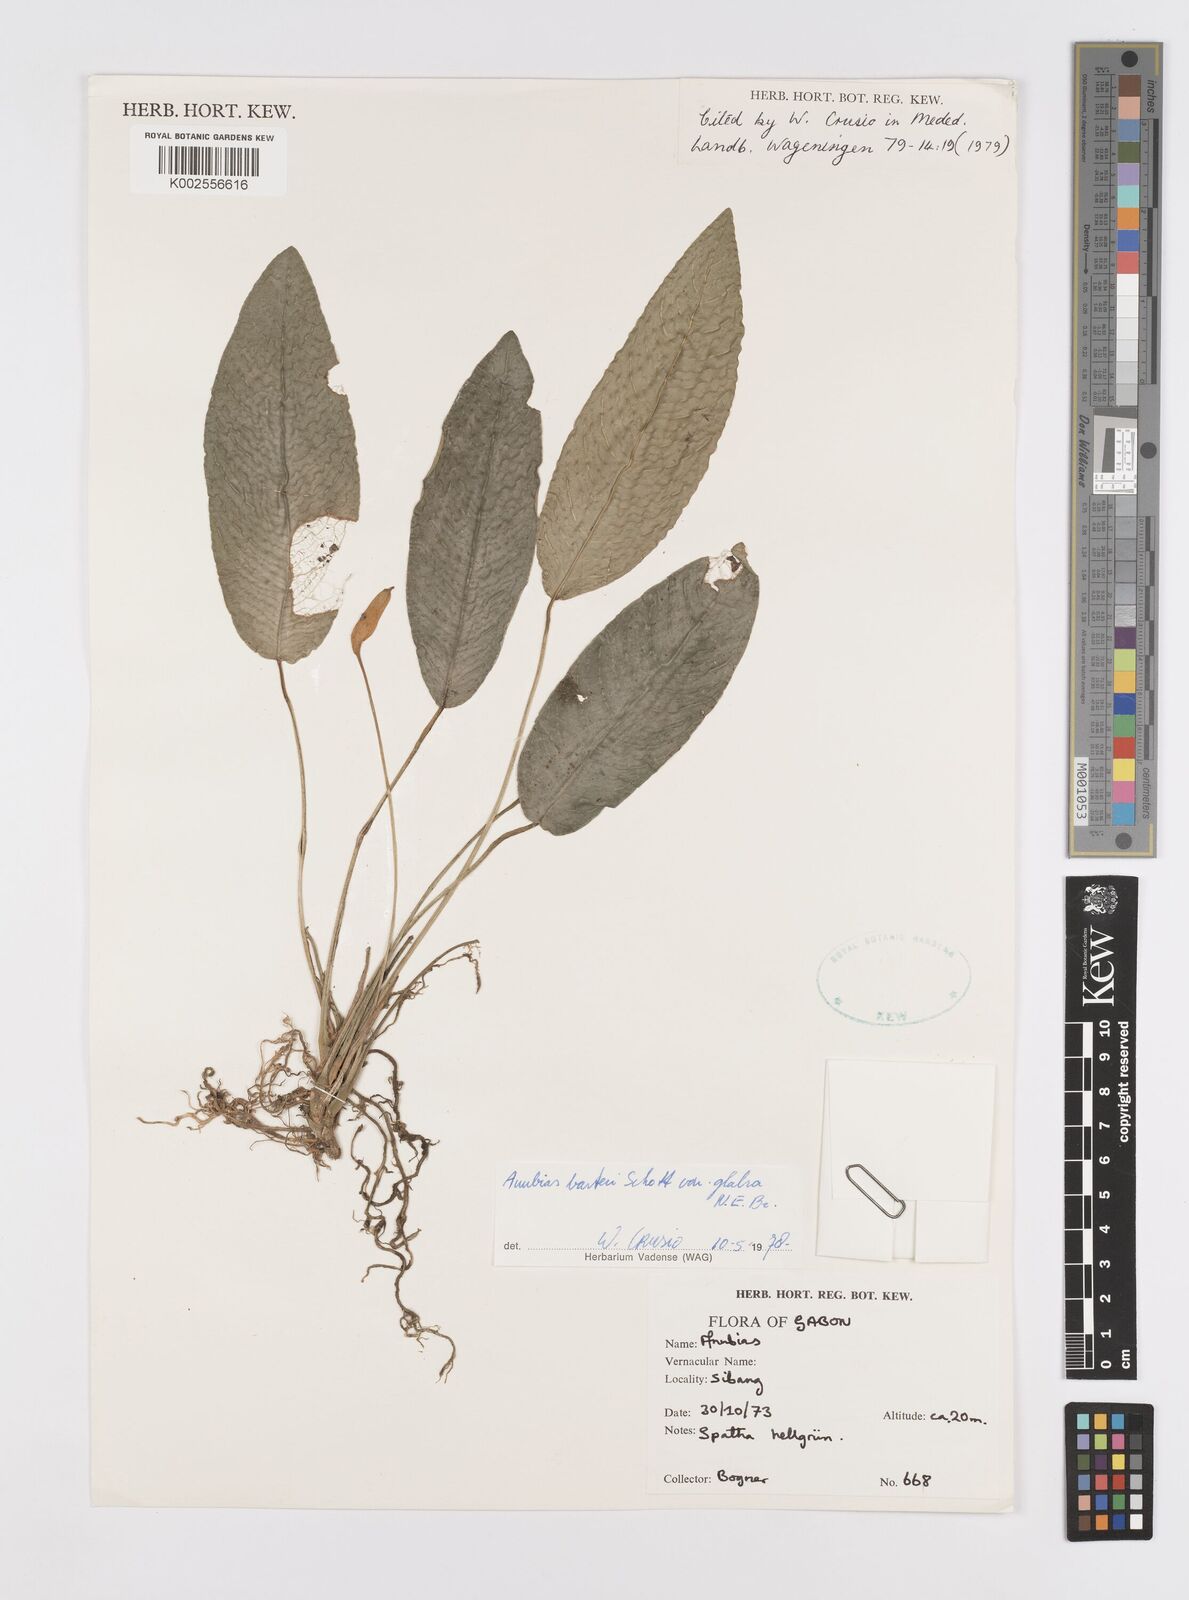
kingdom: Plantae
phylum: Tracheophyta
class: Liliopsida
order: Alismatales
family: Araceae
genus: Anubias
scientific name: Anubias barteri
